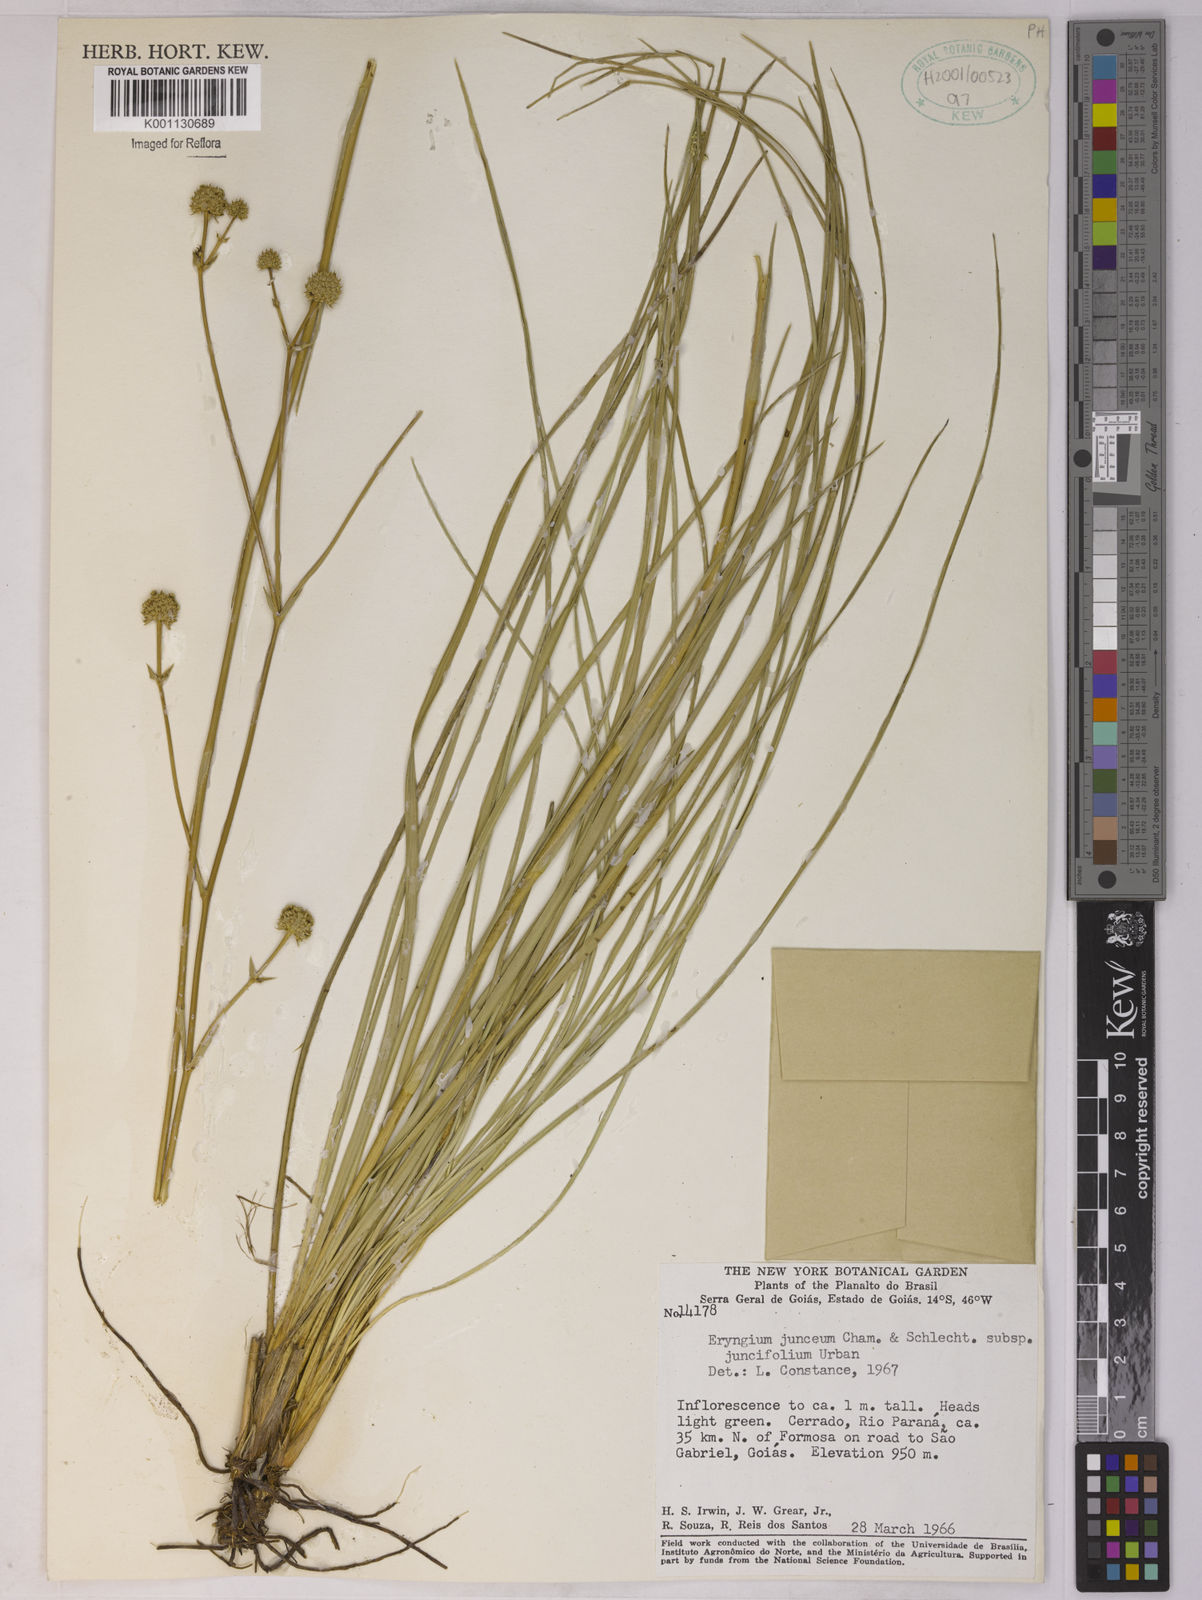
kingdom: Plantae
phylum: Tracheophyta
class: Magnoliopsida
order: Apiales
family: Apiaceae
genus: Eryngium
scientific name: Eryngium juncifolium
